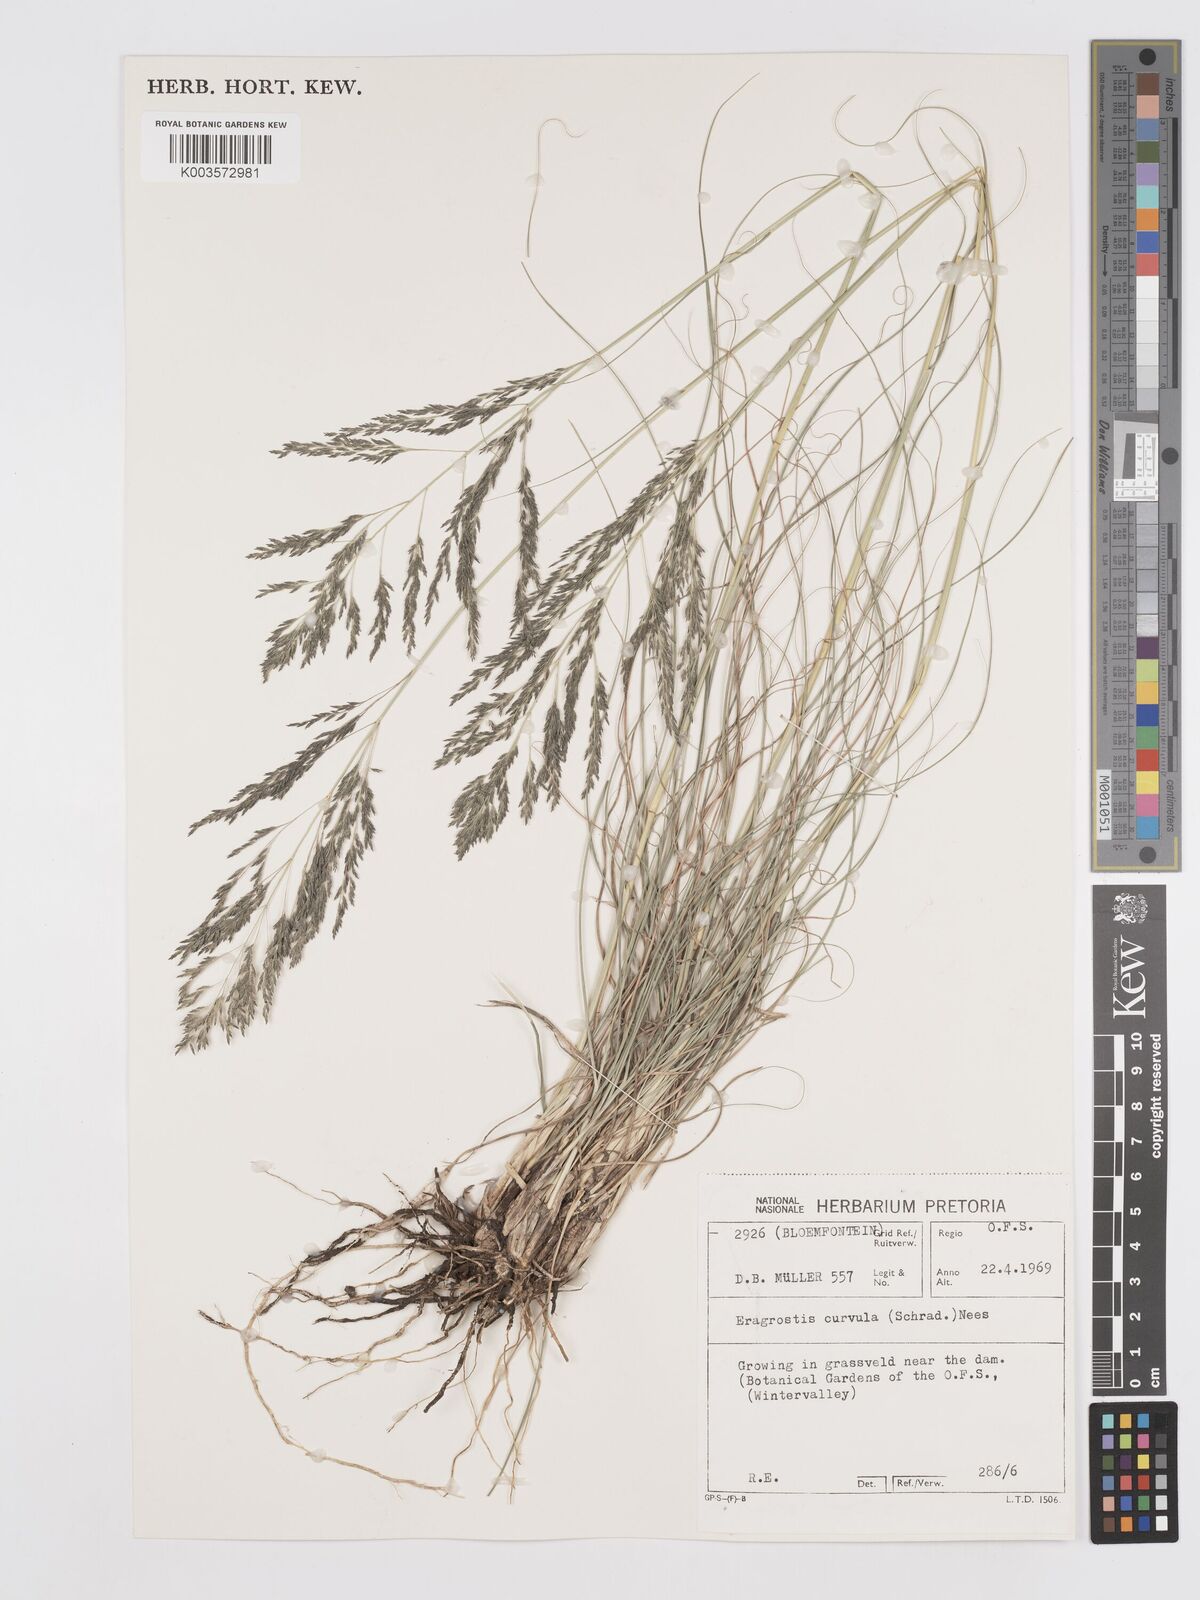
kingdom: Plantae
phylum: Tracheophyta
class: Liliopsida
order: Poales
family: Poaceae
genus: Eragrostis
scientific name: Eragrostis curvula
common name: African love-grass
